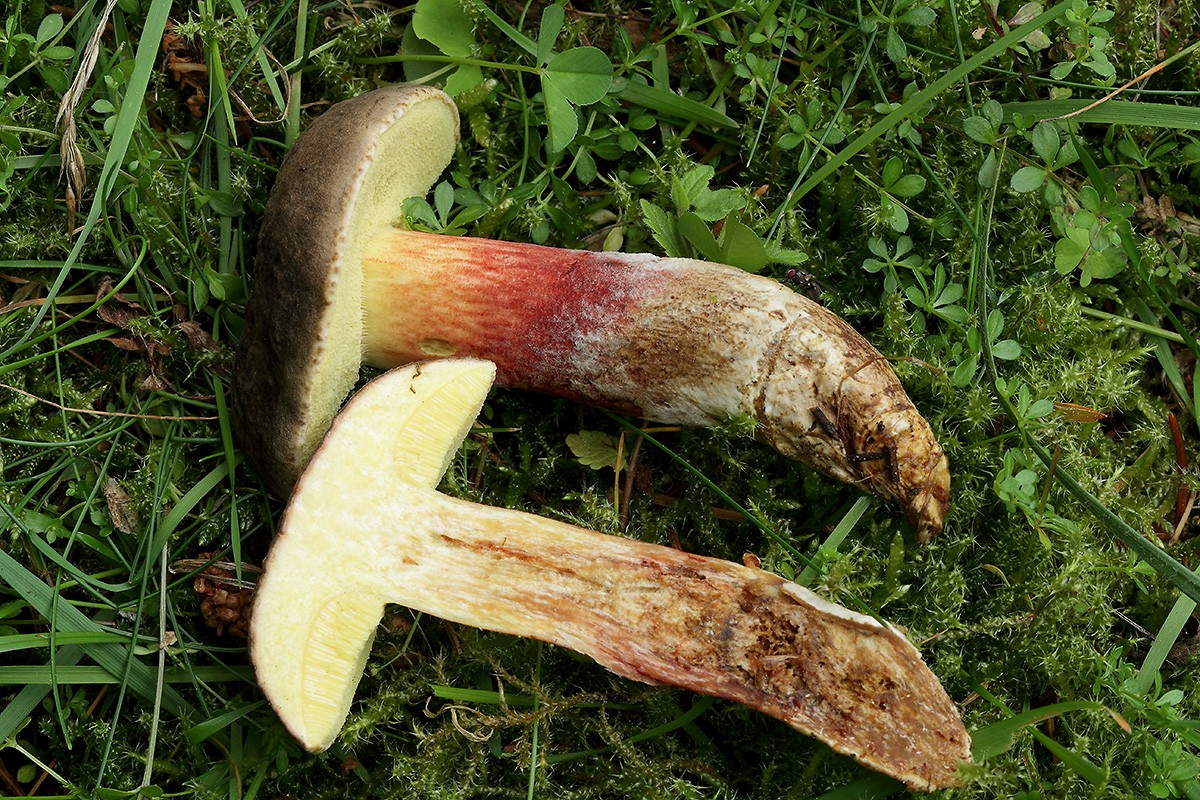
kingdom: Fungi
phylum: Basidiomycota
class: Agaricomycetes
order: Boletales
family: Boletaceae
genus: Xerocomellus
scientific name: Xerocomellus chrysenteron
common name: rødsprukken rørhat
